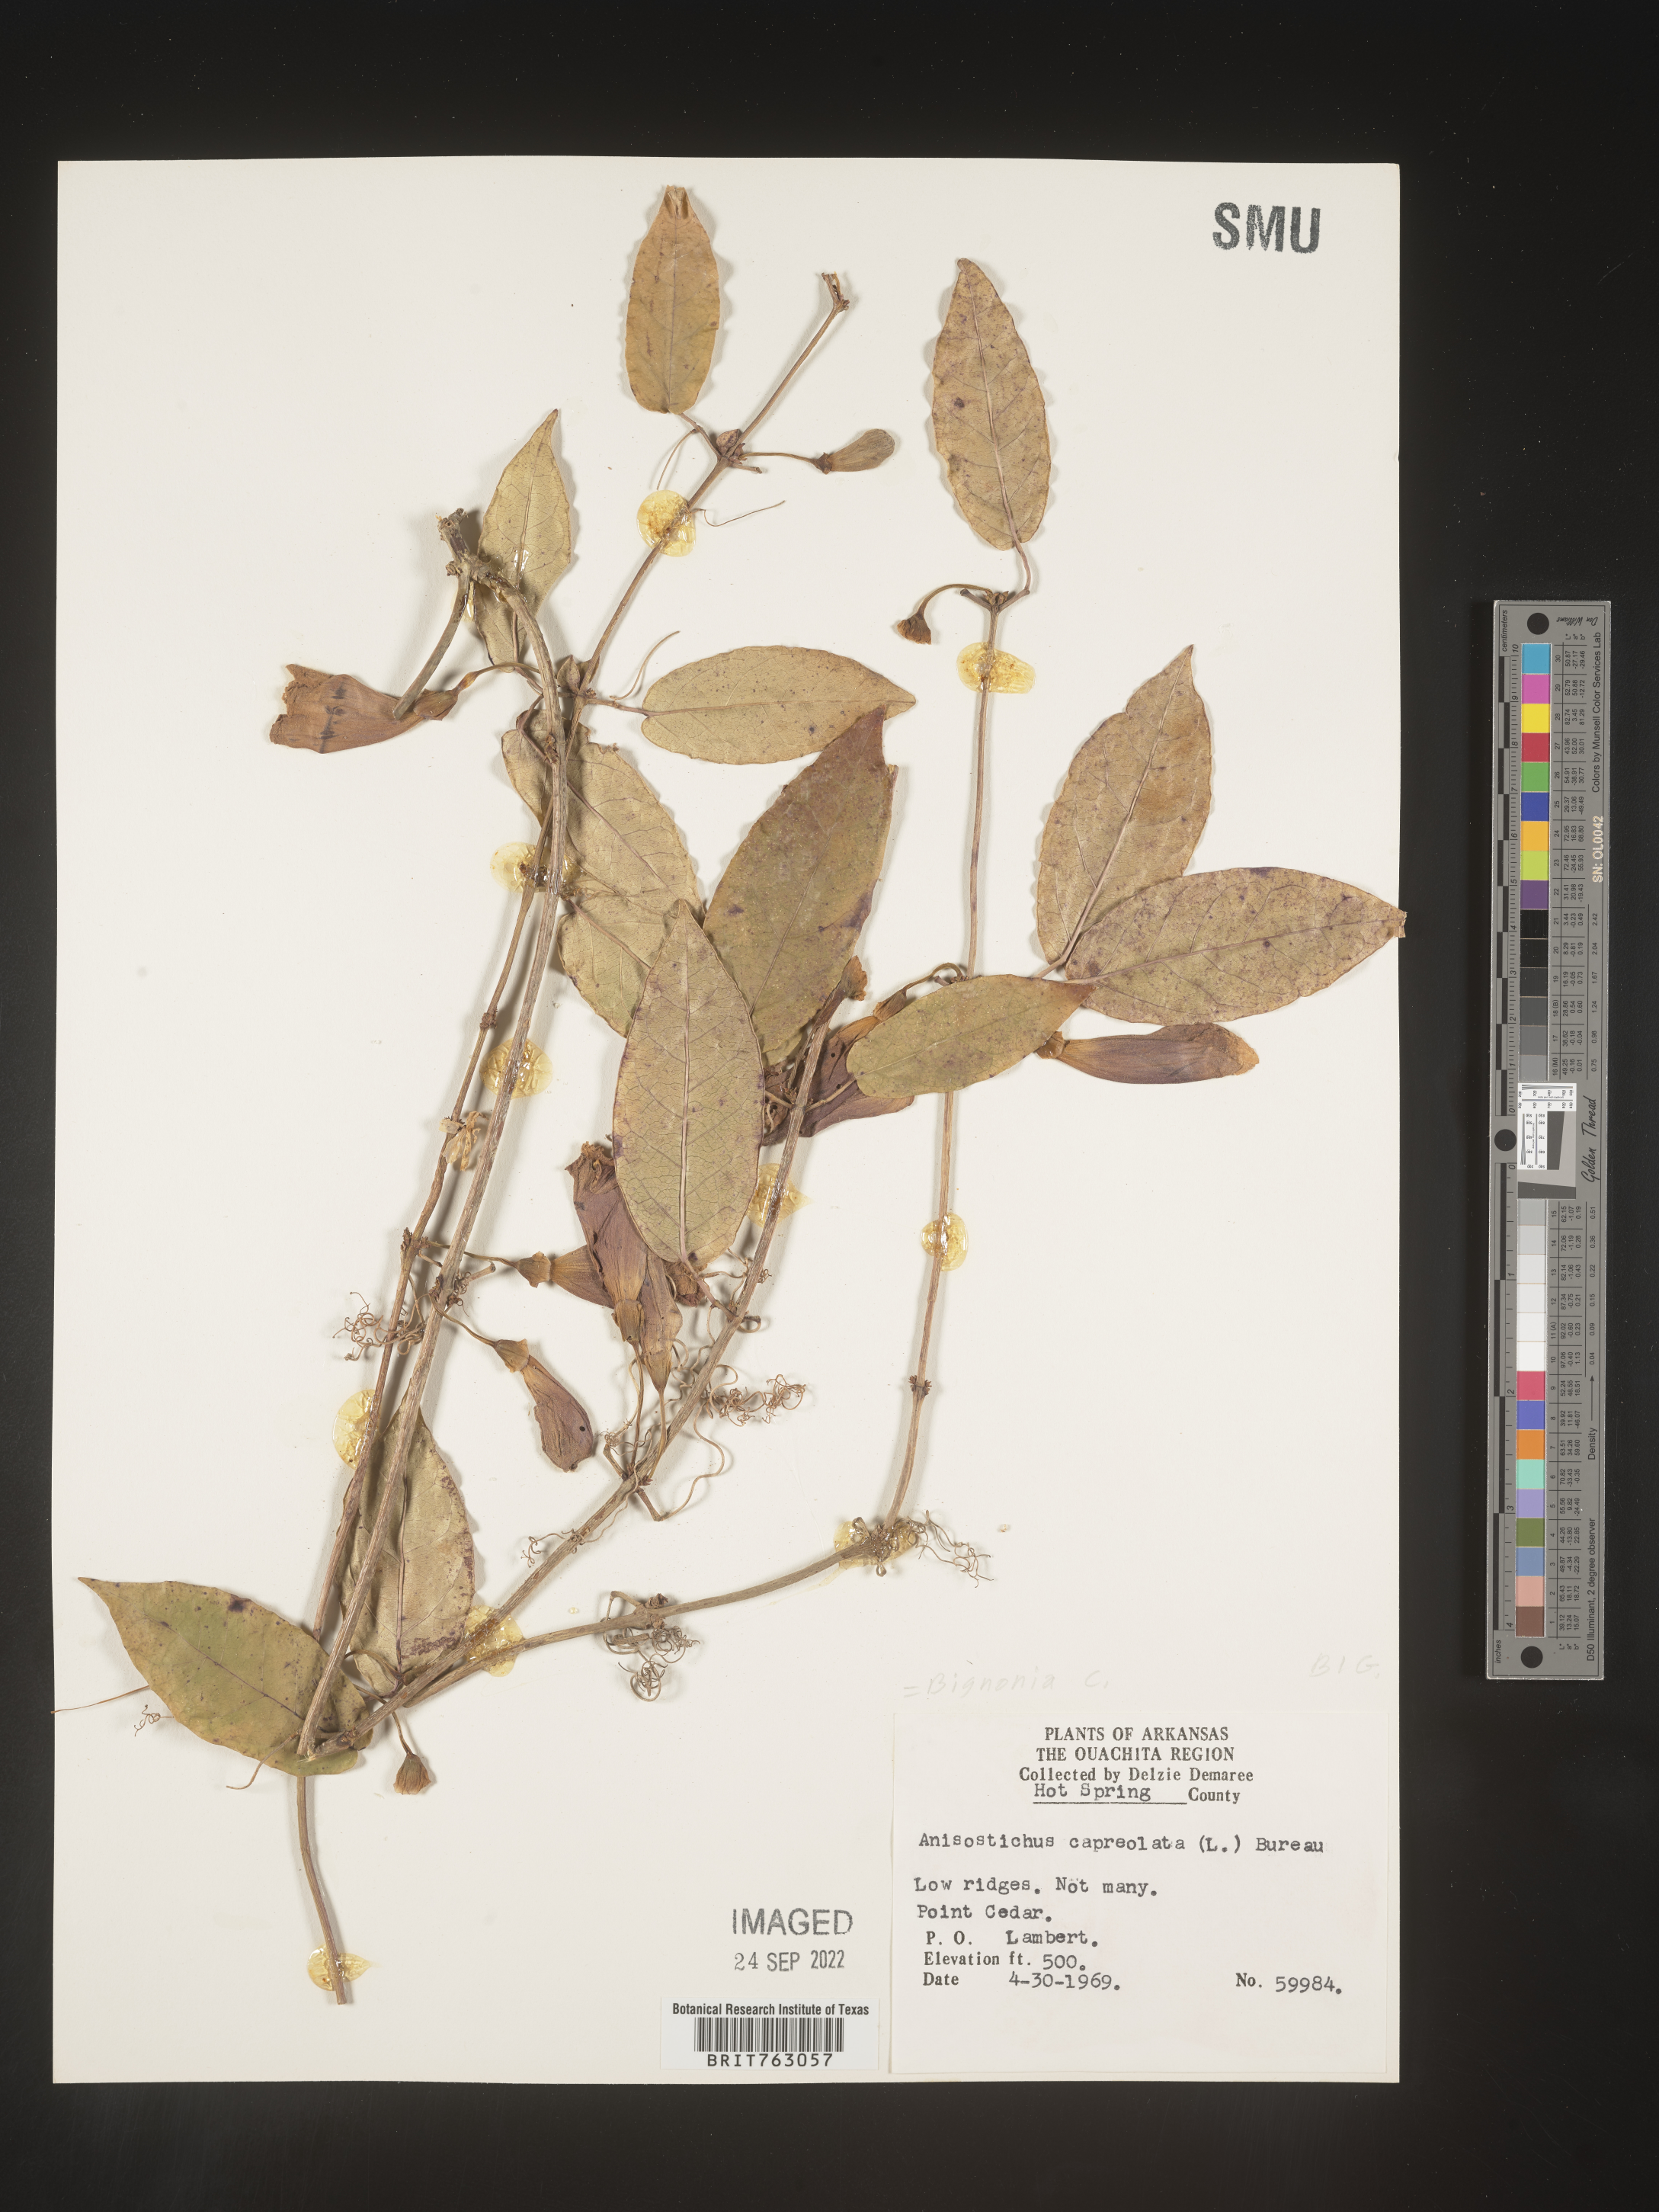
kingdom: Plantae
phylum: Tracheophyta
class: Magnoliopsida
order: Lamiales
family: Bignoniaceae
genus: Bignonia
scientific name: Bignonia capreolata
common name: Crossvine
